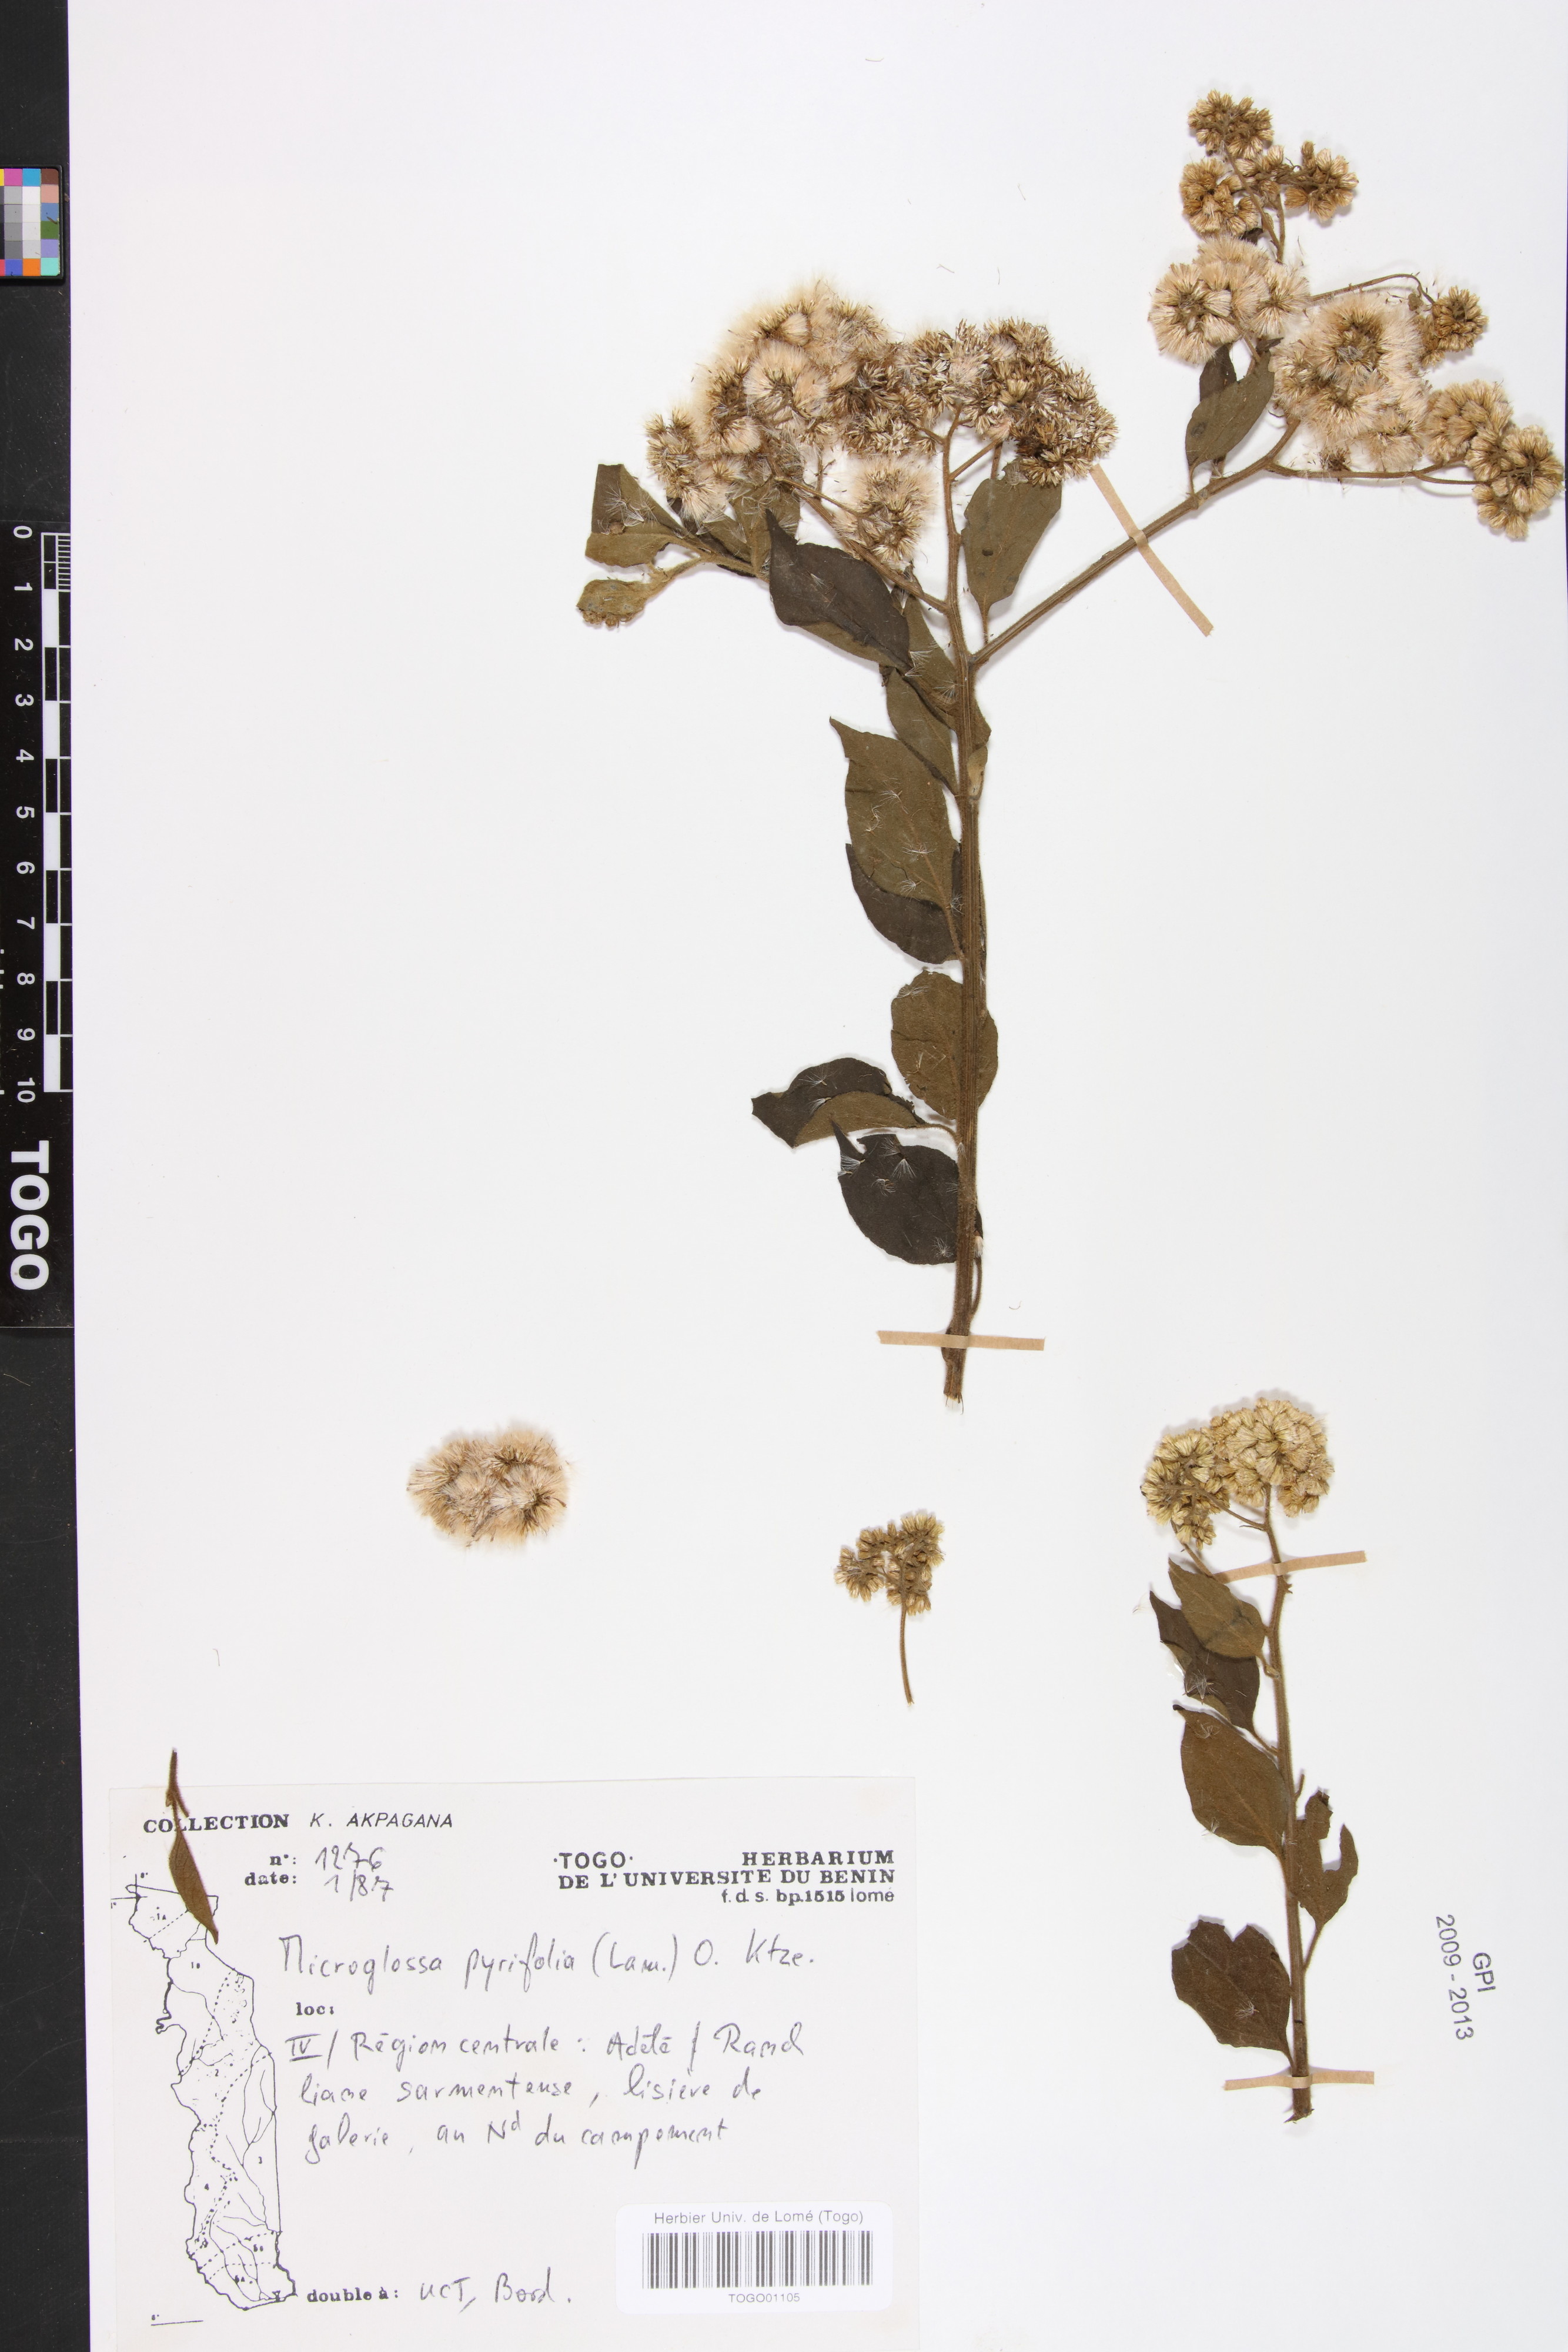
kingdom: Plantae
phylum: Tracheophyta
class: Magnoliopsida
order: Asterales
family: Asteraceae
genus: Microglossa
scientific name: Microglossa pyrifolia
